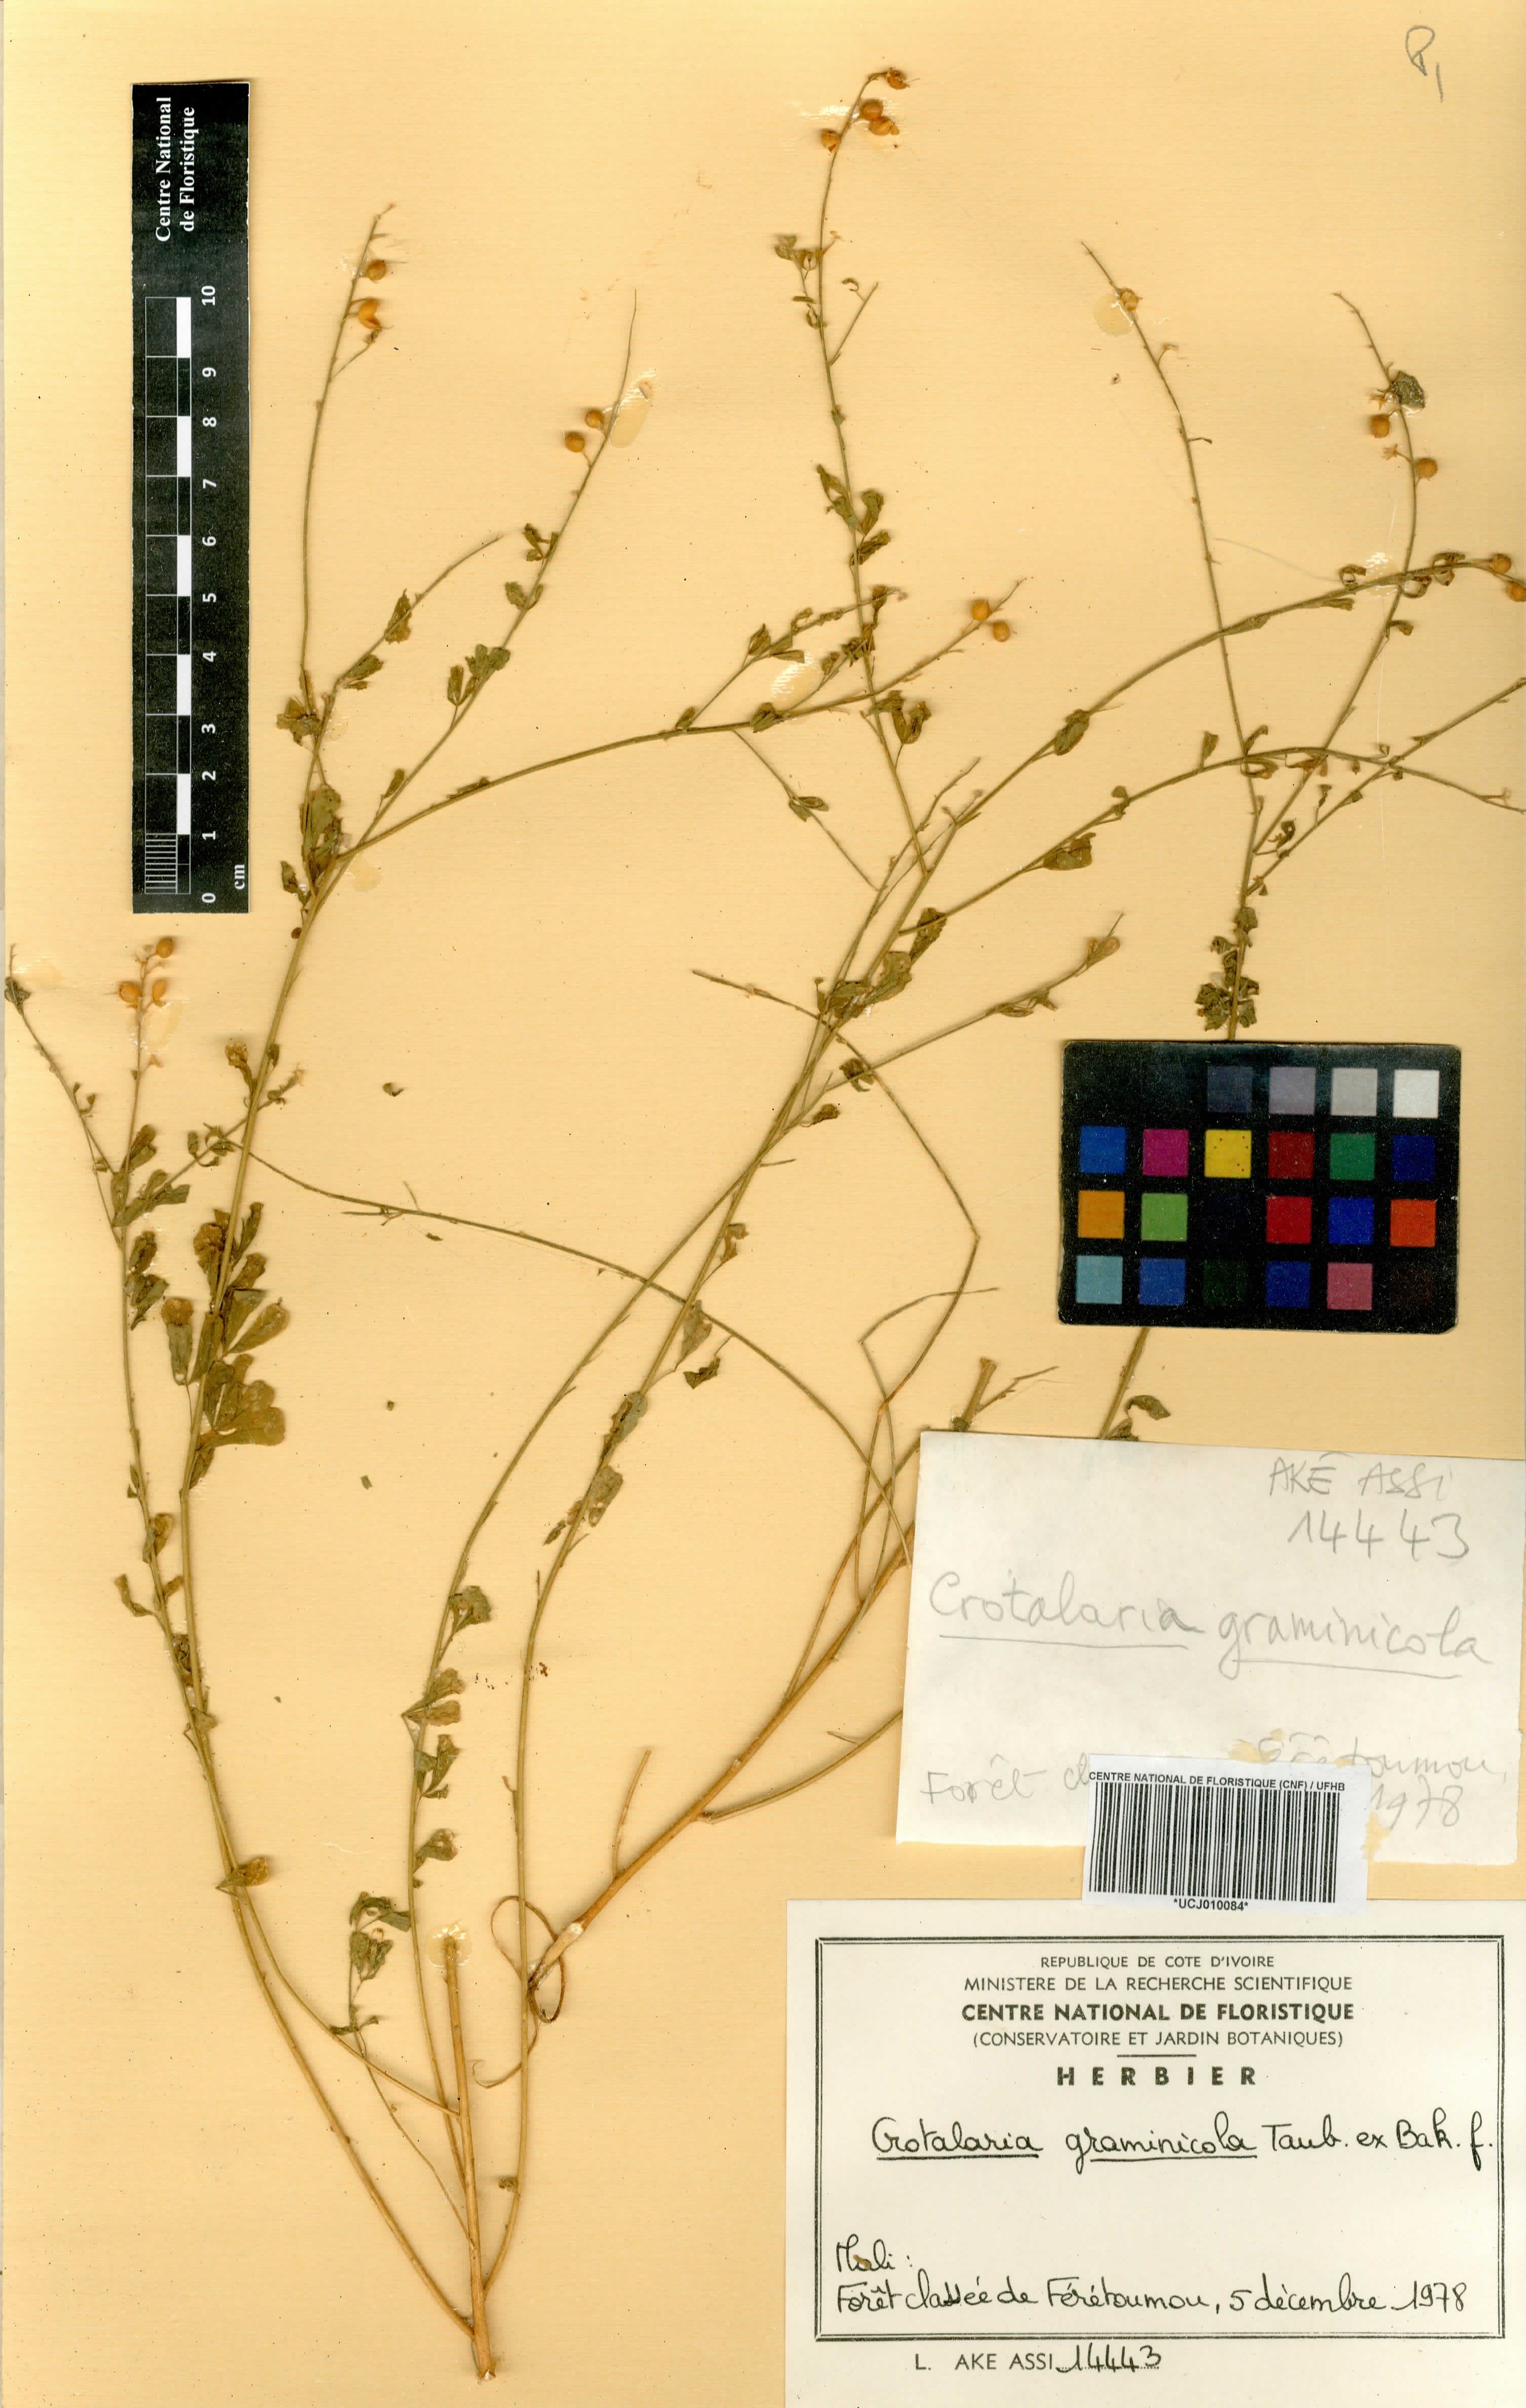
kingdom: Plantae
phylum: Tracheophyta
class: Magnoliopsida
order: Fabales
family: Fabaceae
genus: Crotalaria
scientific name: Crotalaria graminicola
